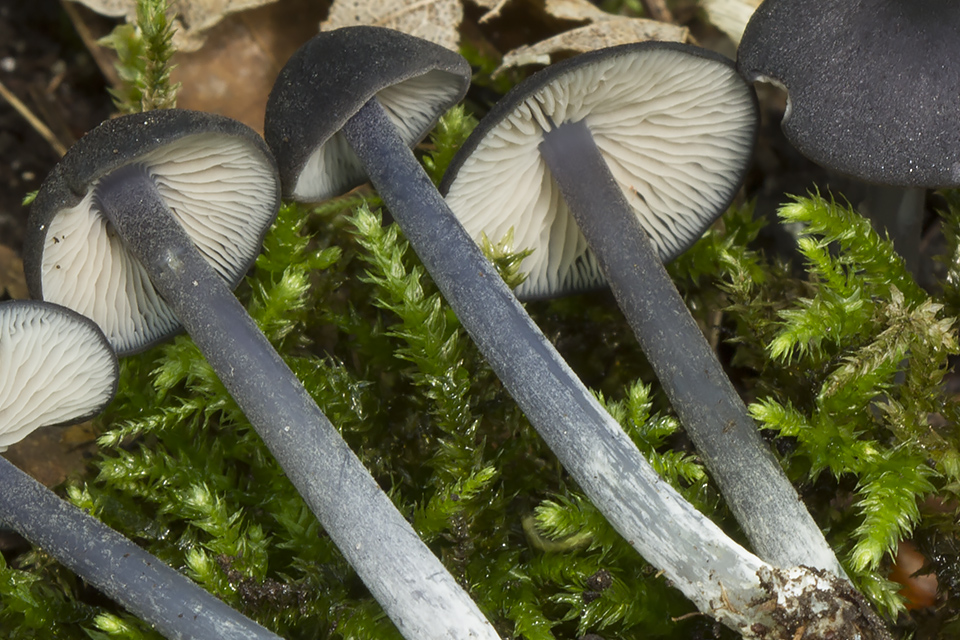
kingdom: Fungi
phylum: Basidiomycota
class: Agaricomycetes
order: Agaricales
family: Entolomataceae
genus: Entoloma
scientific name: Entoloma erhardii
